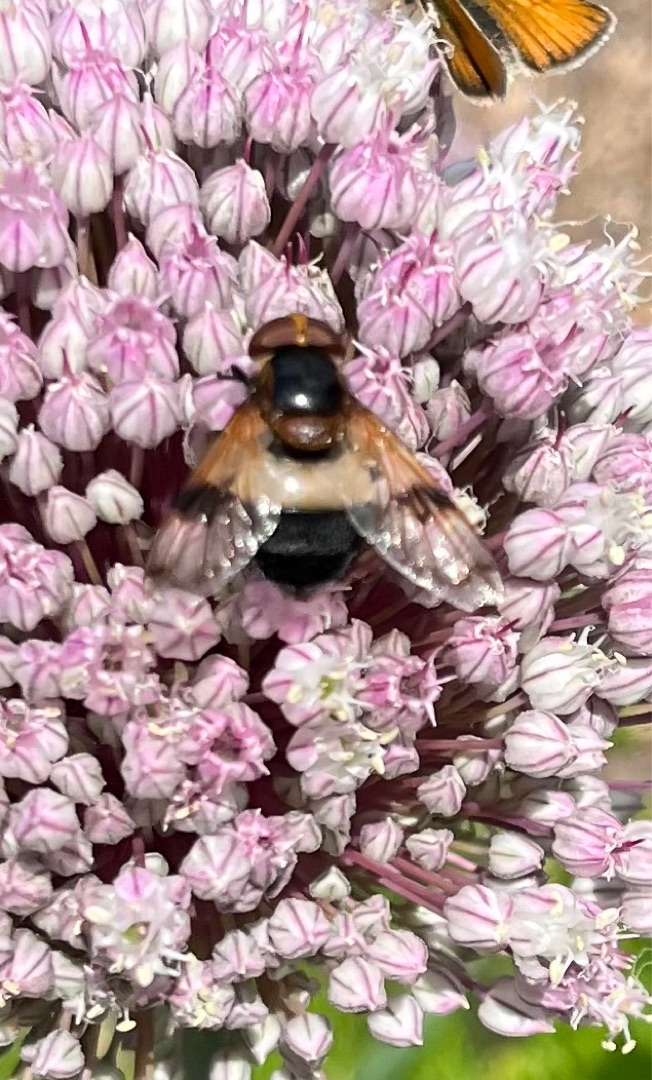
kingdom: Animalia
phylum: Arthropoda
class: Insecta
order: Diptera
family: Syrphidae
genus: Volucella
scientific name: Volucella pellucens
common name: Hvidbåndet humlesvirreflue
